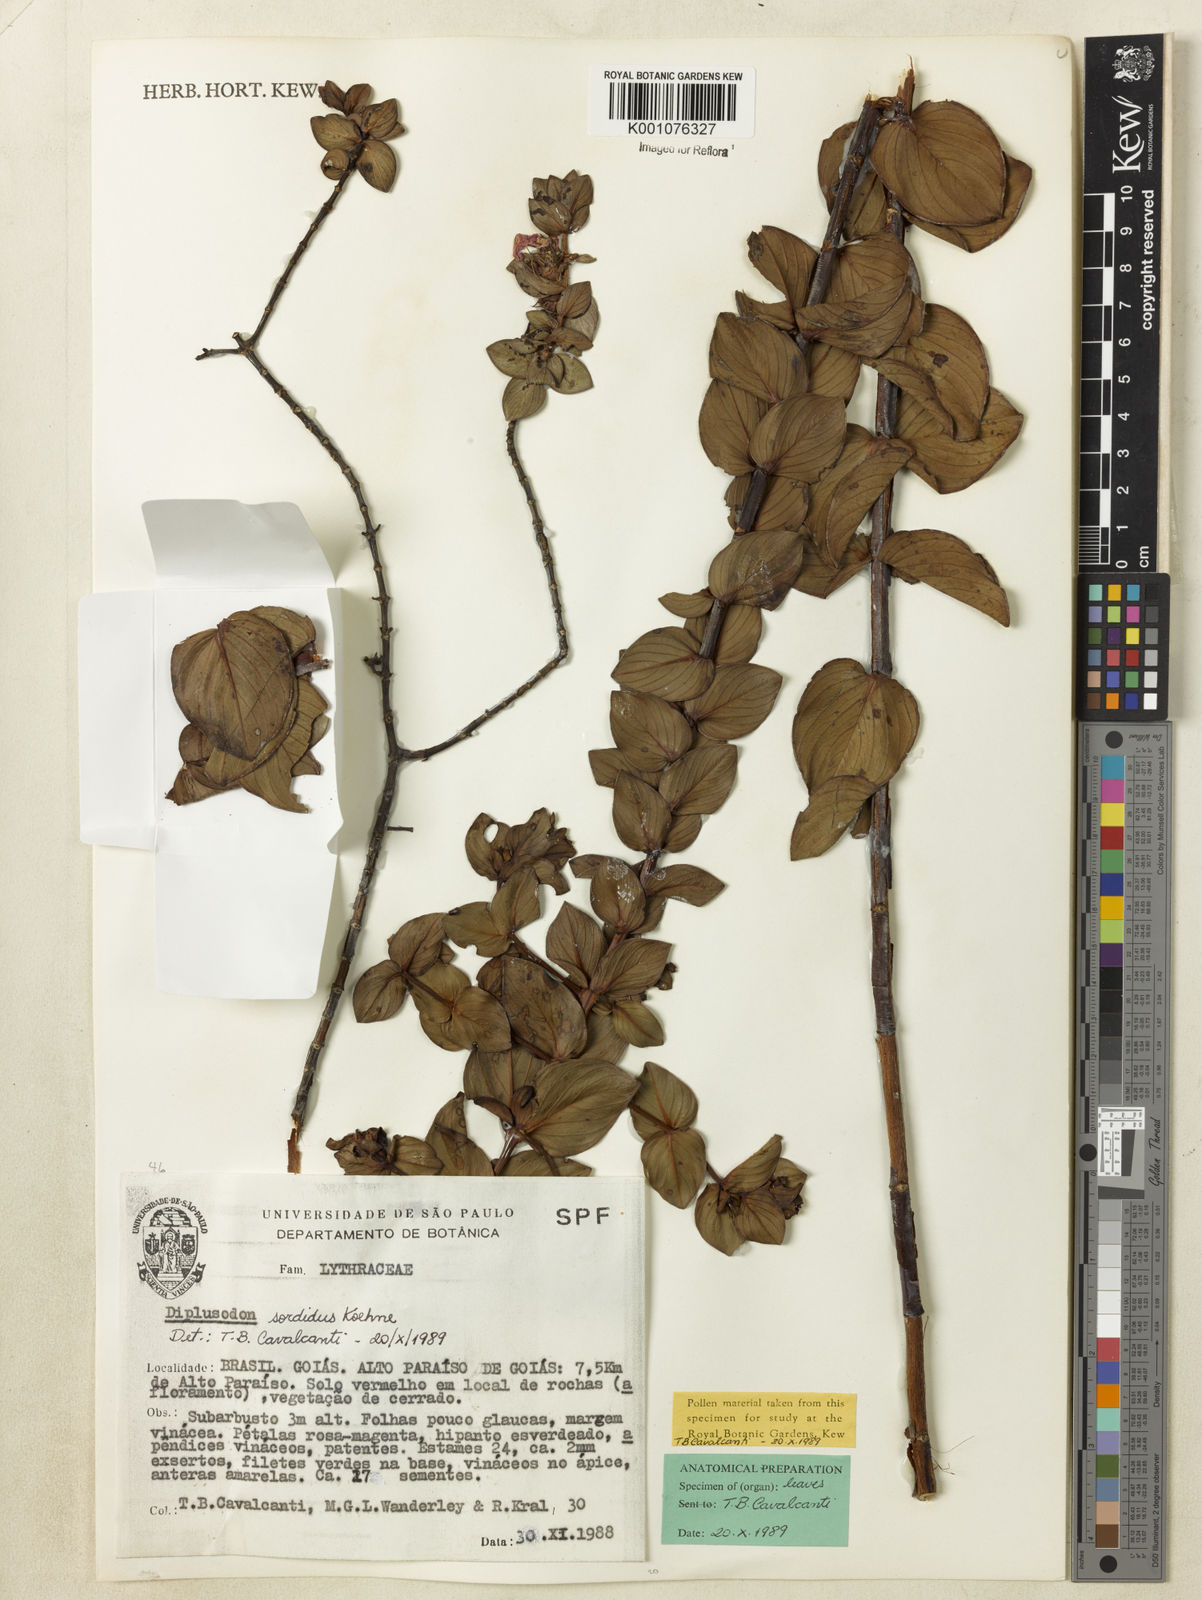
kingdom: Plantae
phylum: Tracheophyta
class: Magnoliopsida
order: Myrtales
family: Lythraceae
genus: Diplusodon
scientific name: Diplusodon sordidus
